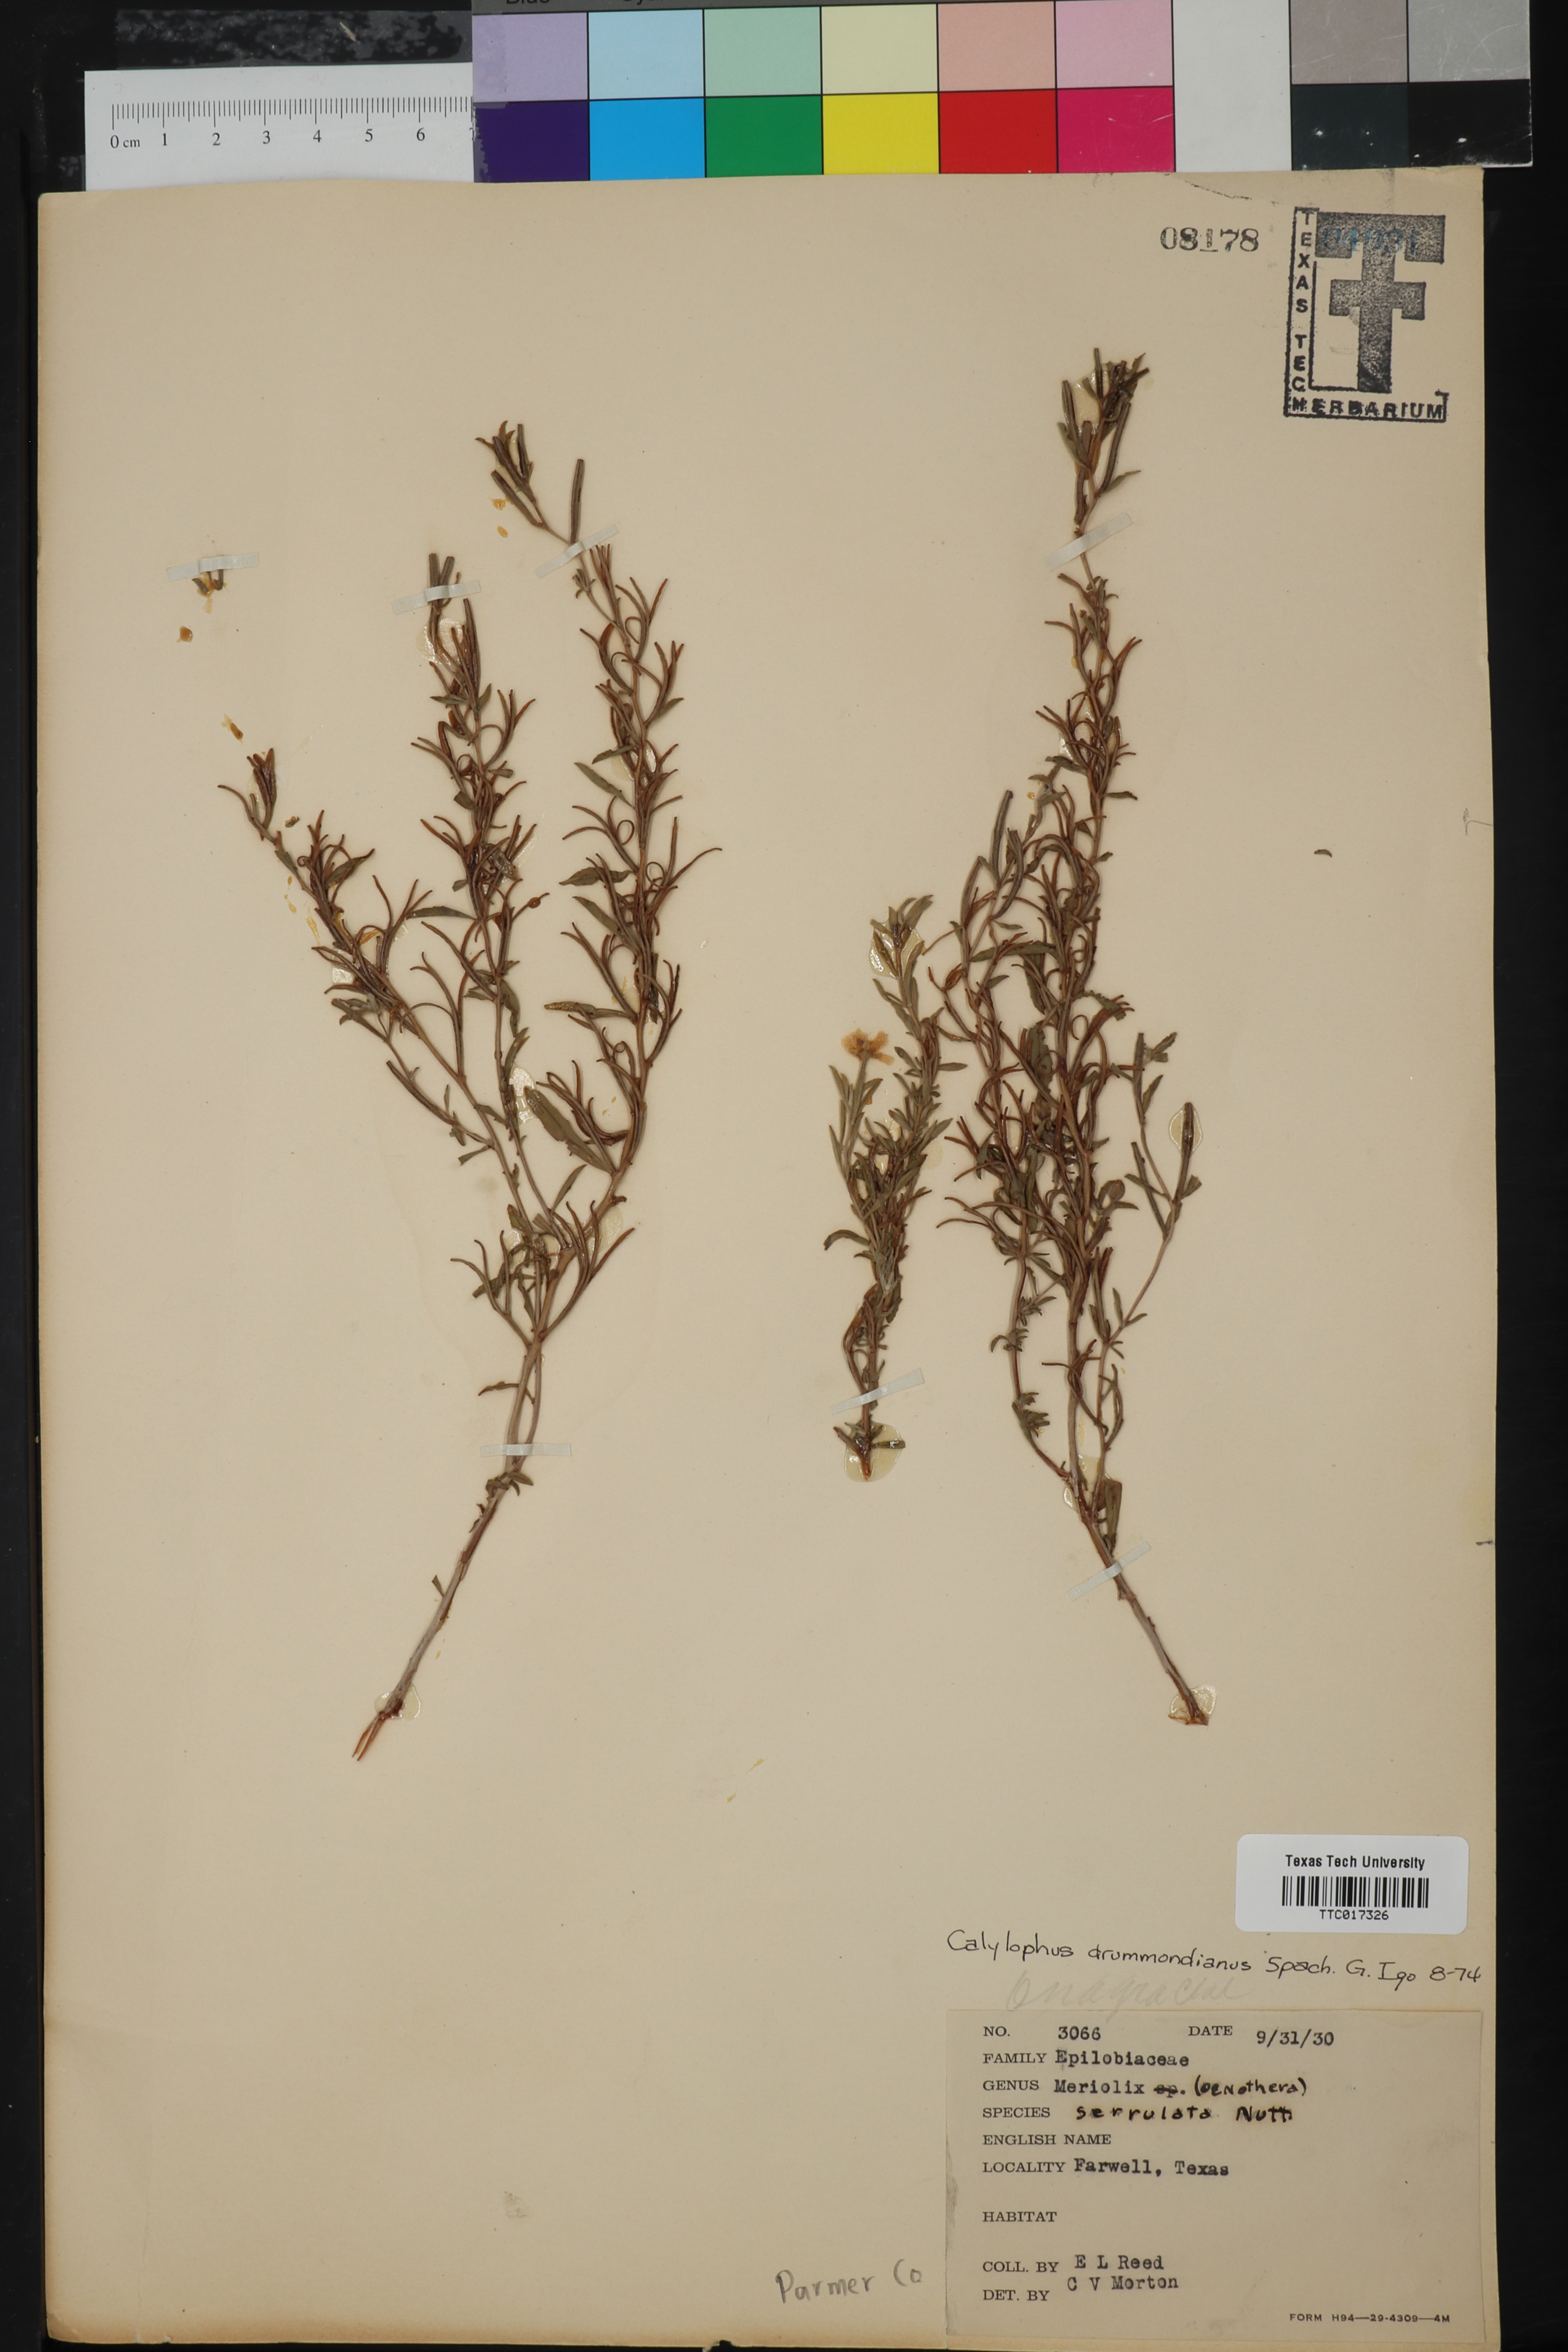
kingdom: Plantae
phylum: Tracheophyta
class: Magnoliopsida
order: Myrtales
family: Onagraceae
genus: Oenothera
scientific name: Oenothera serrulata
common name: Half-shrub calylophus
